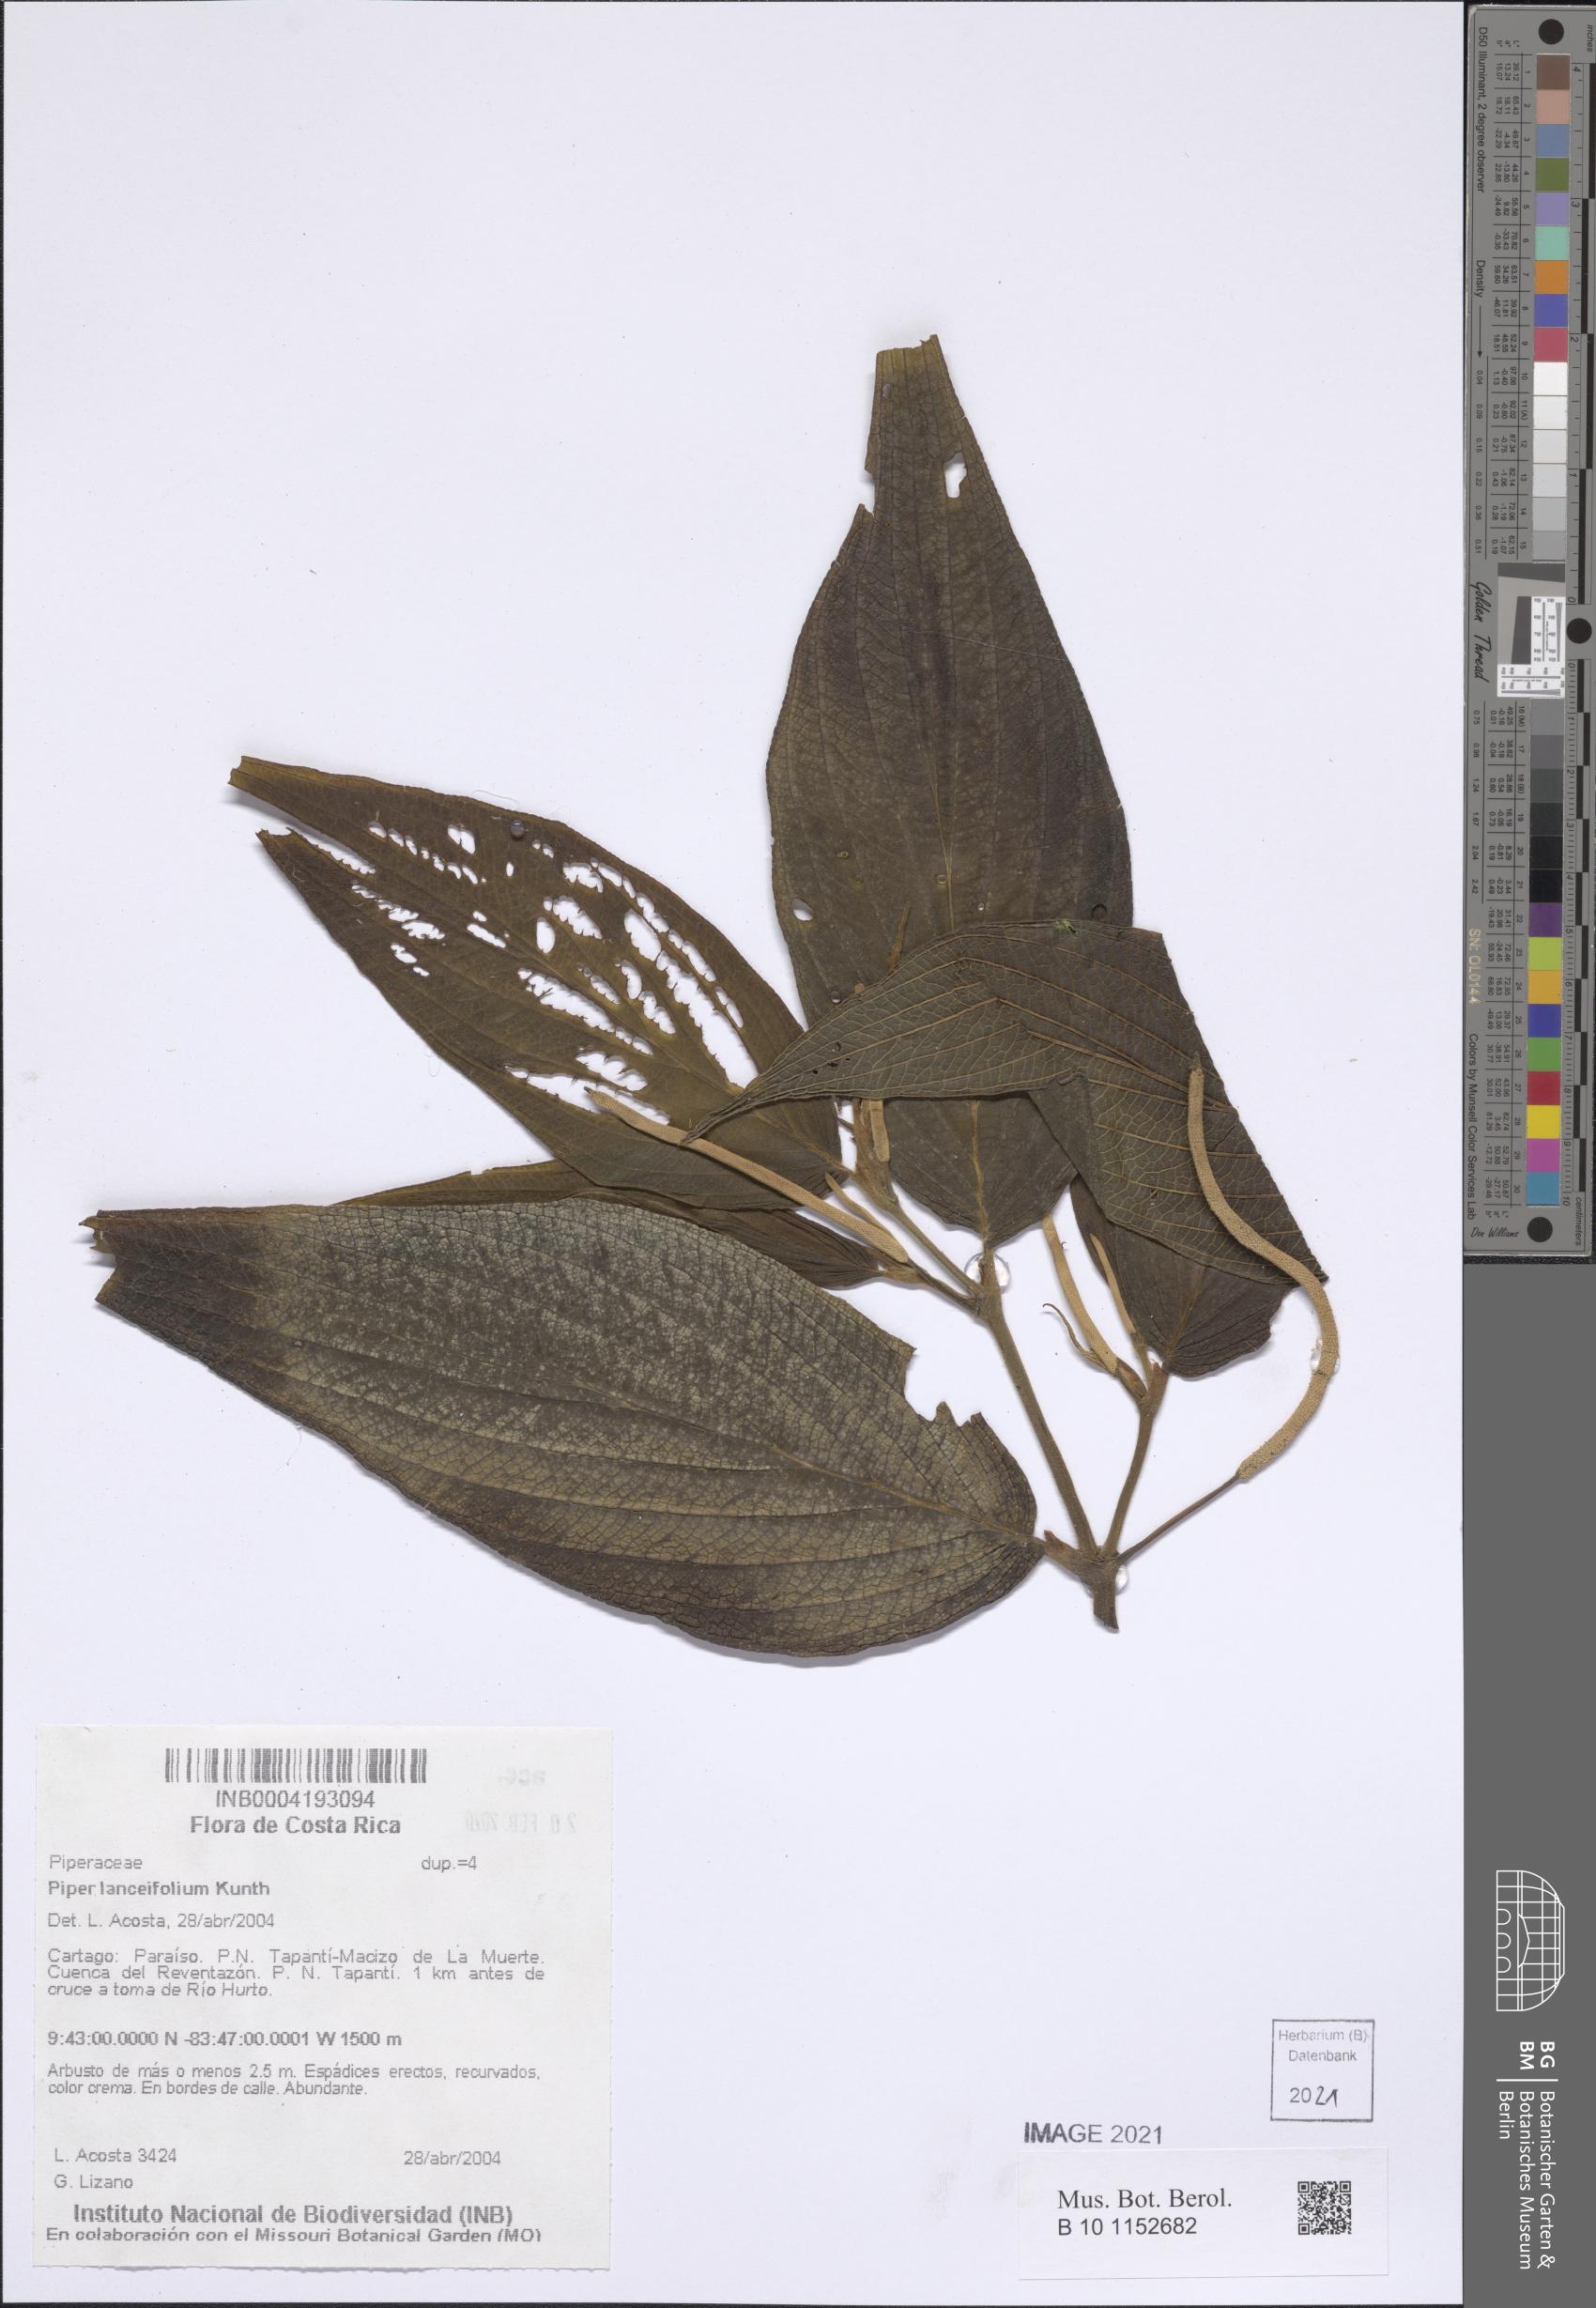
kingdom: Plantae
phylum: Tracheophyta
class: Magnoliopsida
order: Piperales
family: Piperaceae
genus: Piper
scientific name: Piper lanceifolium
